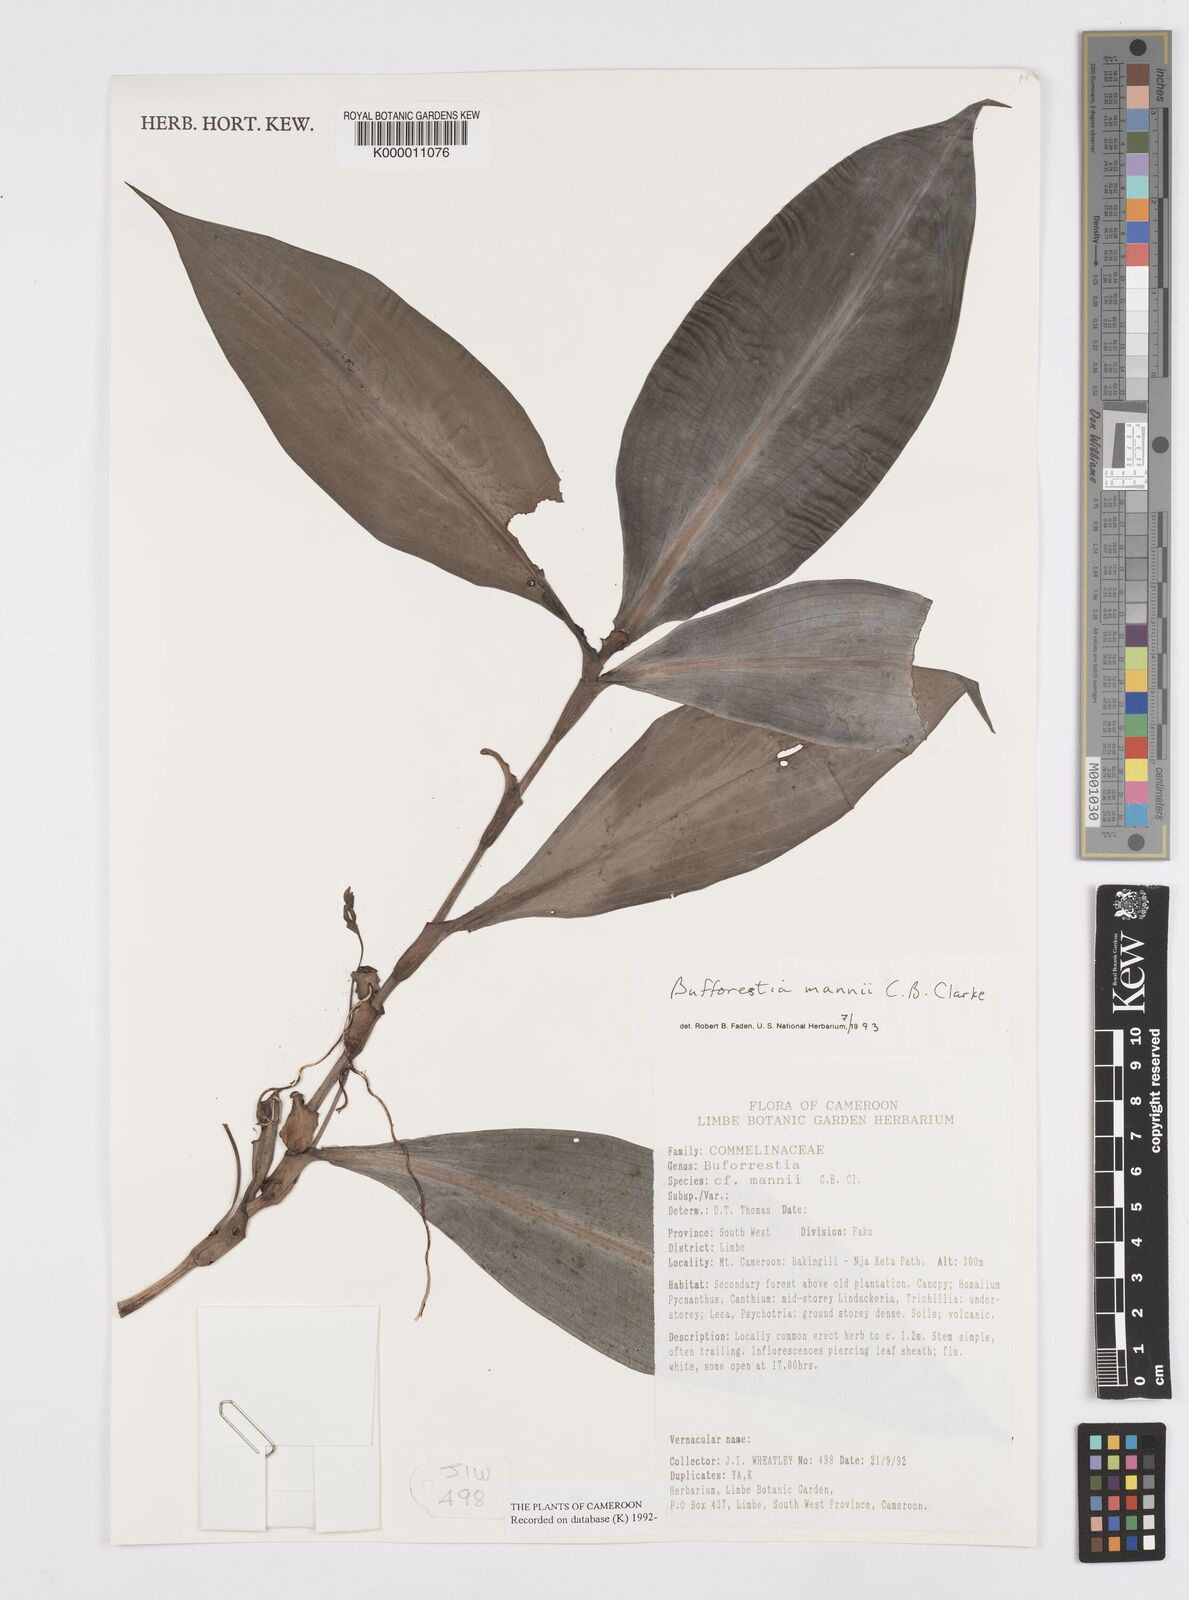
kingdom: Plantae
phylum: Tracheophyta
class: Liliopsida
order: Commelinales
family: Commelinaceae
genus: Buforrestia
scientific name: Buforrestia mannii
